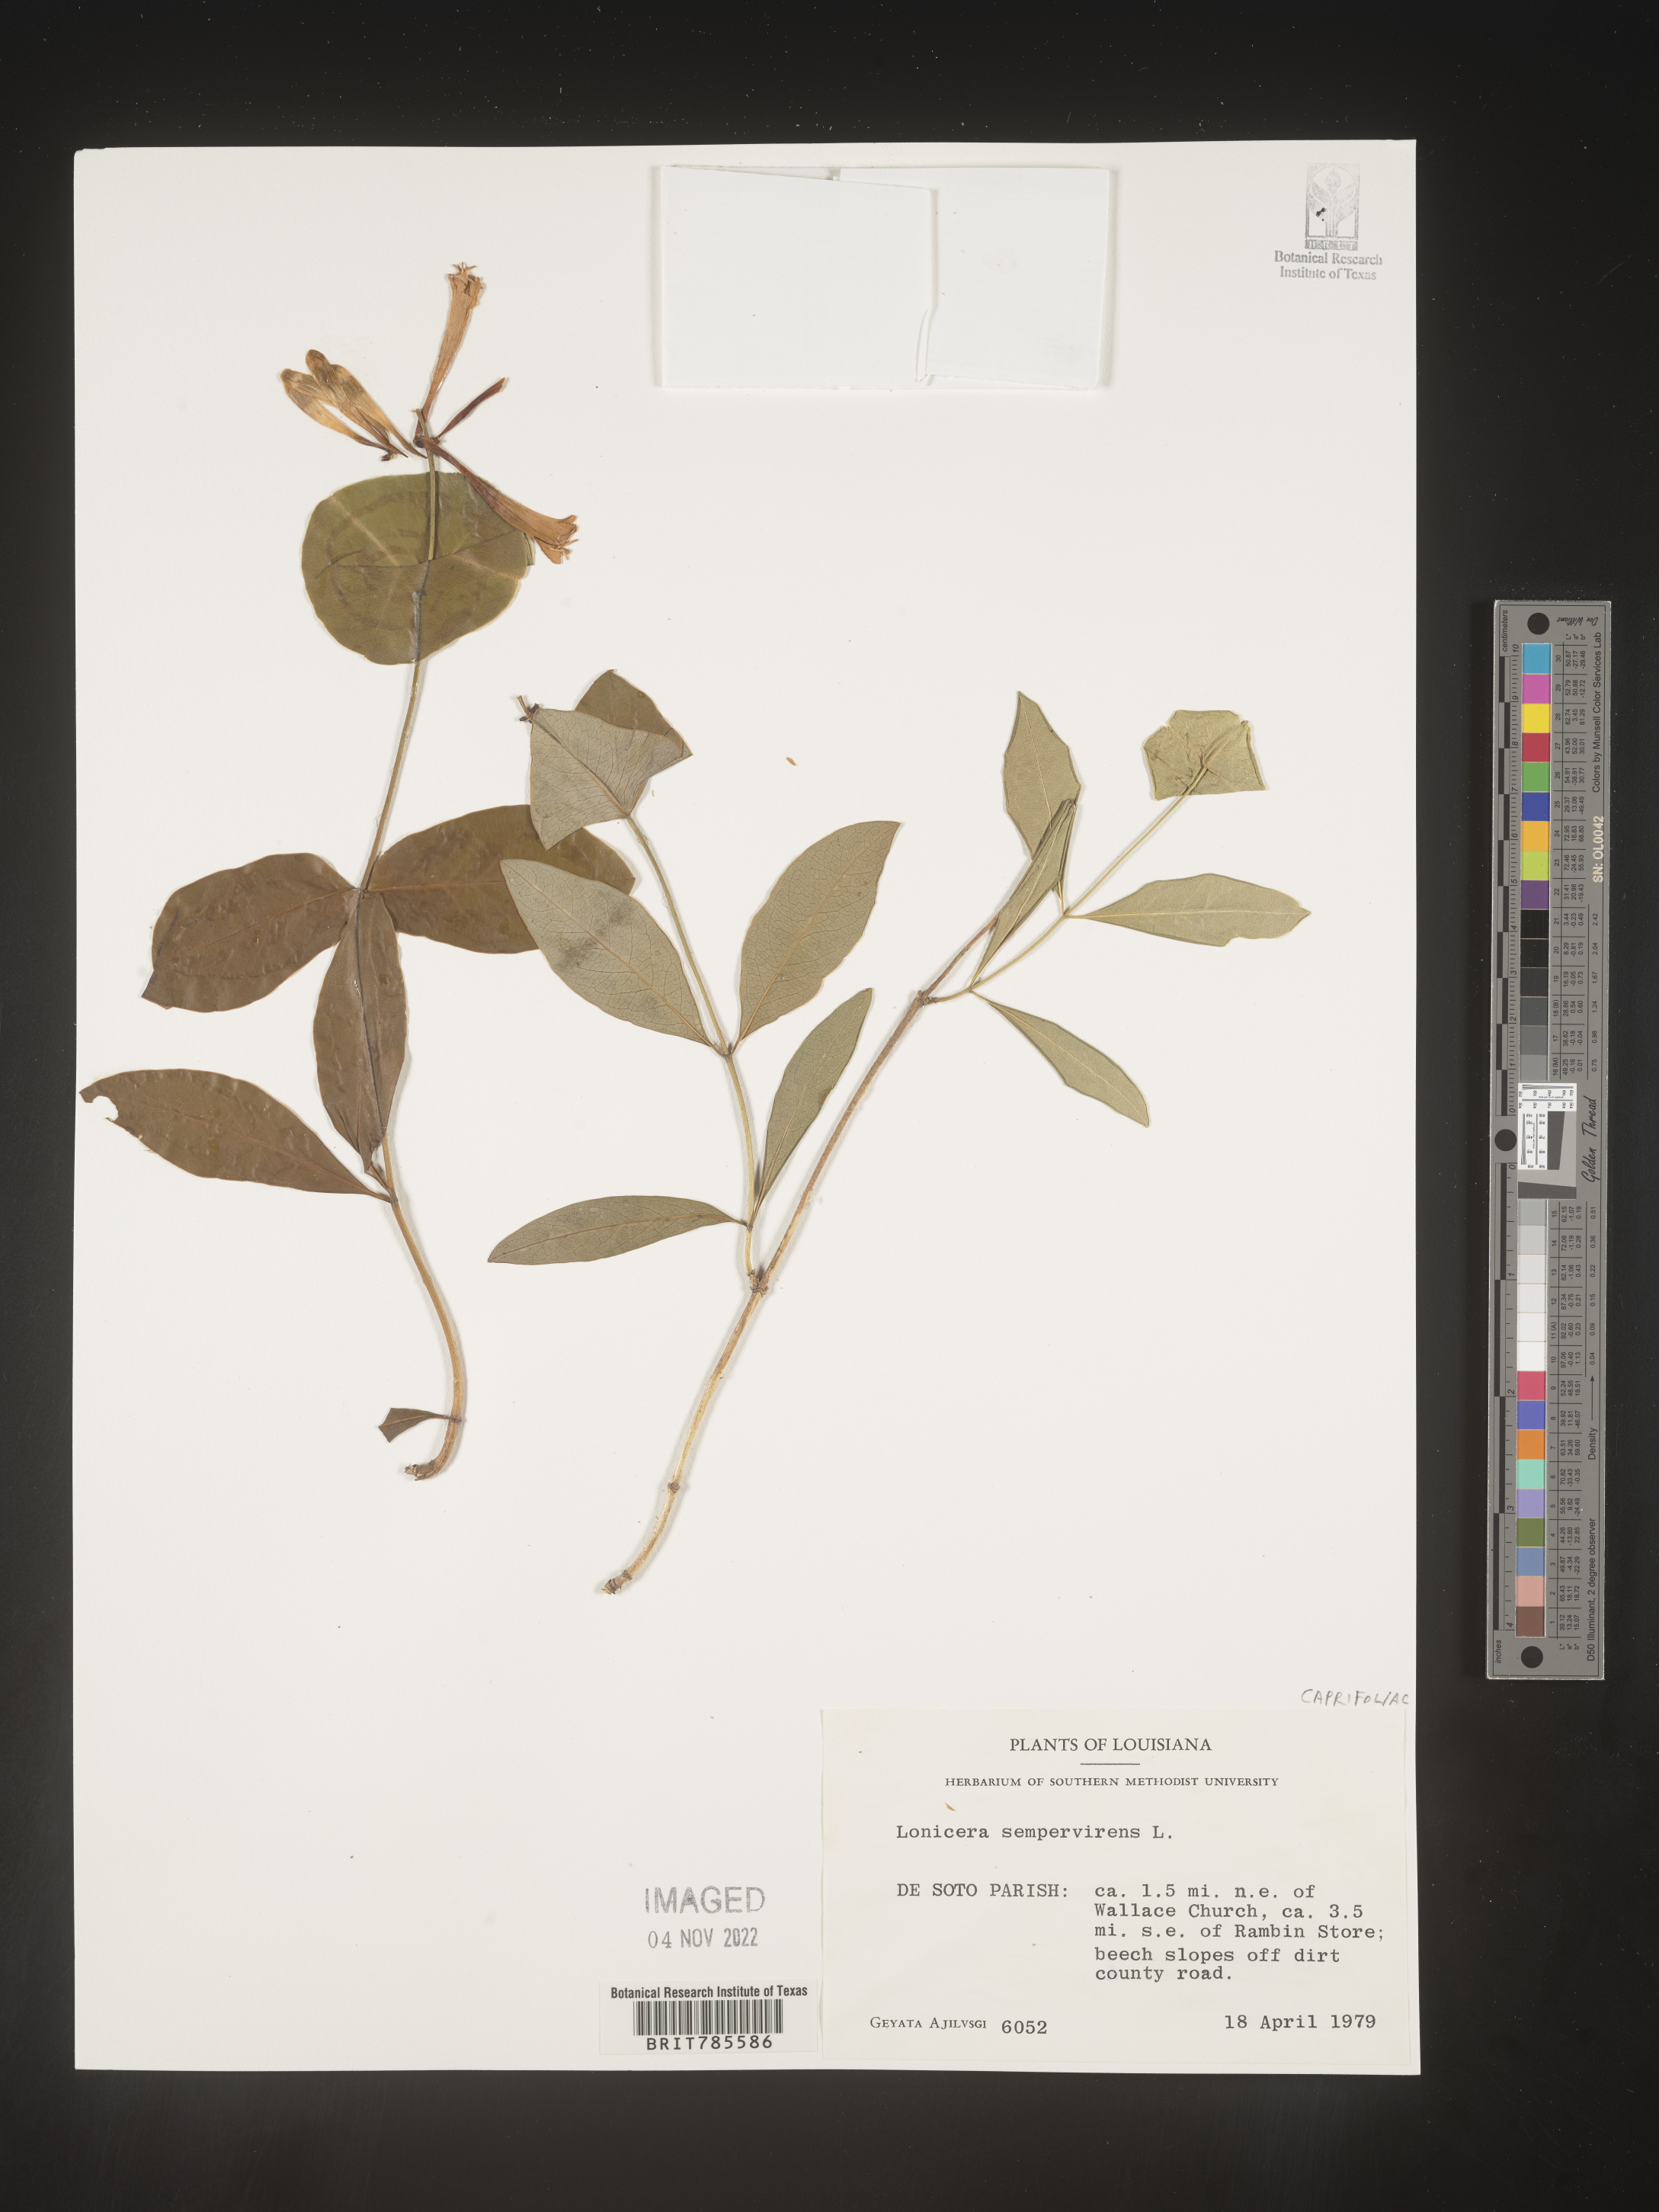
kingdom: Plantae
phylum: Tracheophyta
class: Magnoliopsida
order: Dipsacales
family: Caprifoliaceae
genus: Lonicera
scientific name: Lonicera sempervirens
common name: Coral honeysuckle
